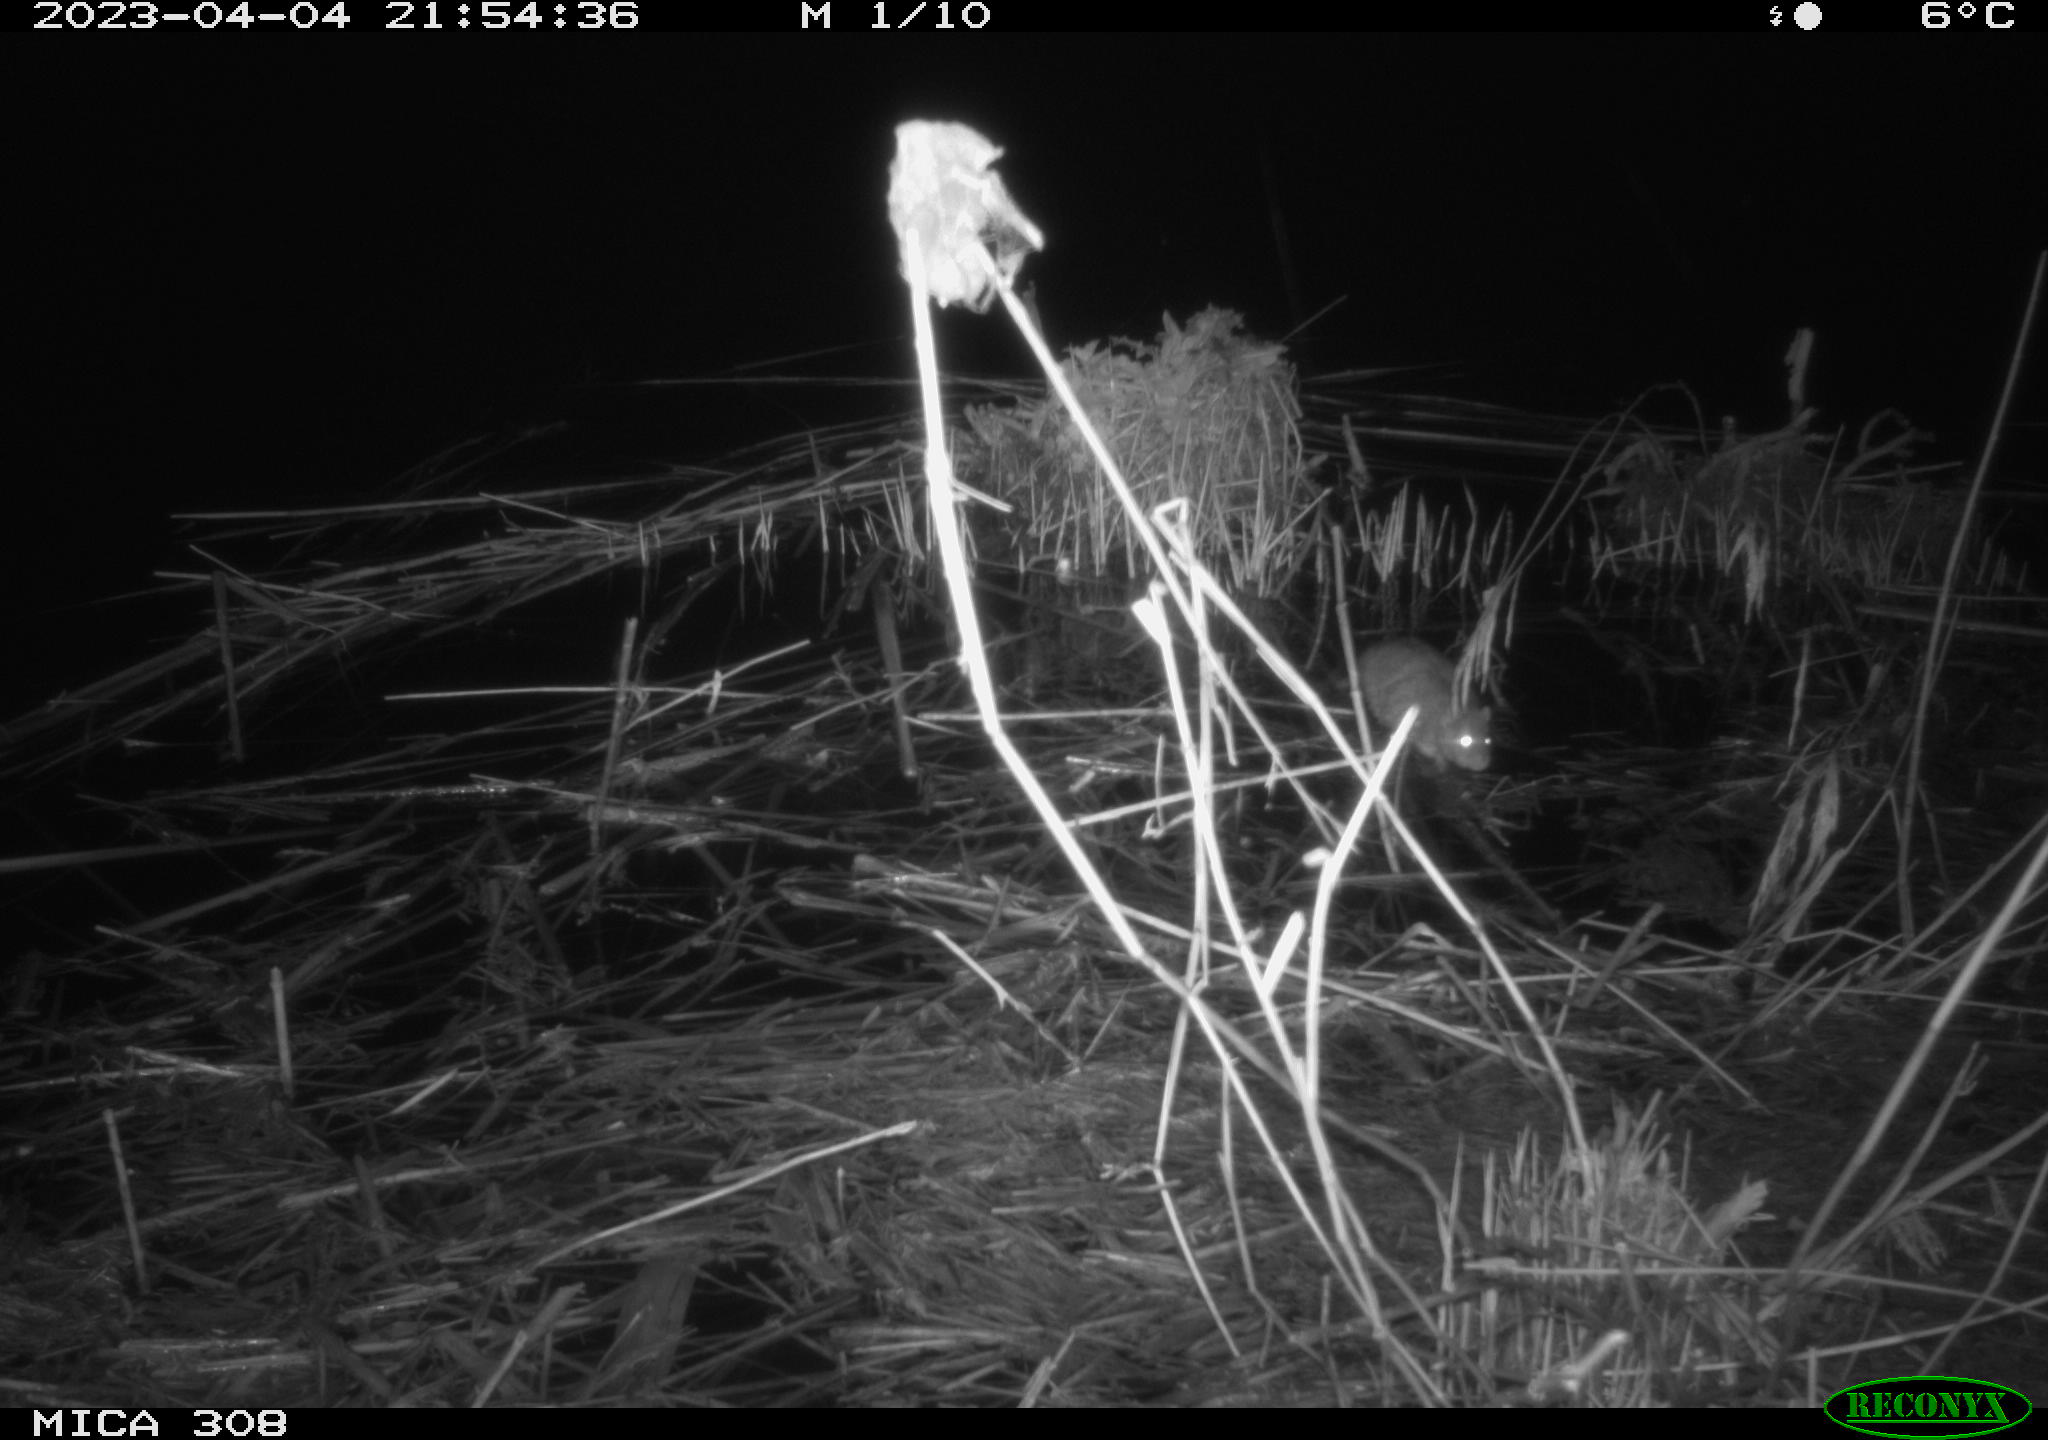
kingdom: Animalia
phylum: Chordata
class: Mammalia
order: Rodentia
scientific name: Rodentia
